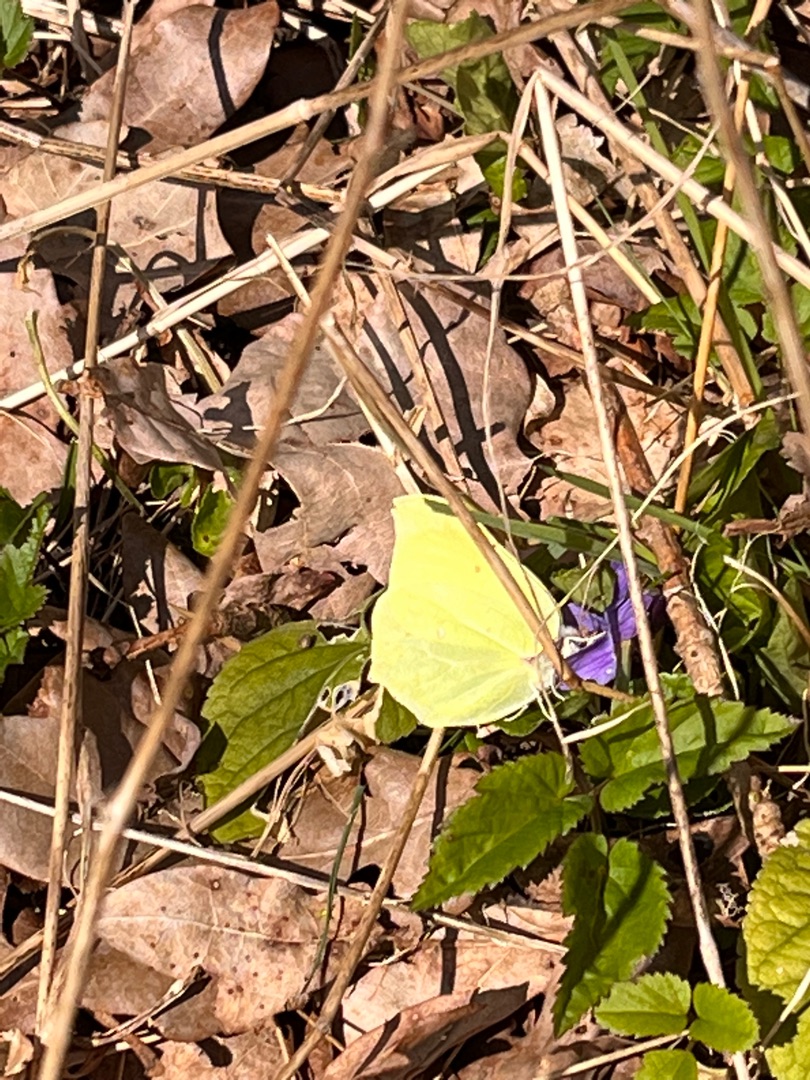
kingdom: Animalia
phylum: Arthropoda
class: Insecta
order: Lepidoptera
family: Pieridae
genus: Gonepteryx
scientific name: Gonepteryx rhamni
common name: Citronsommerfugl
